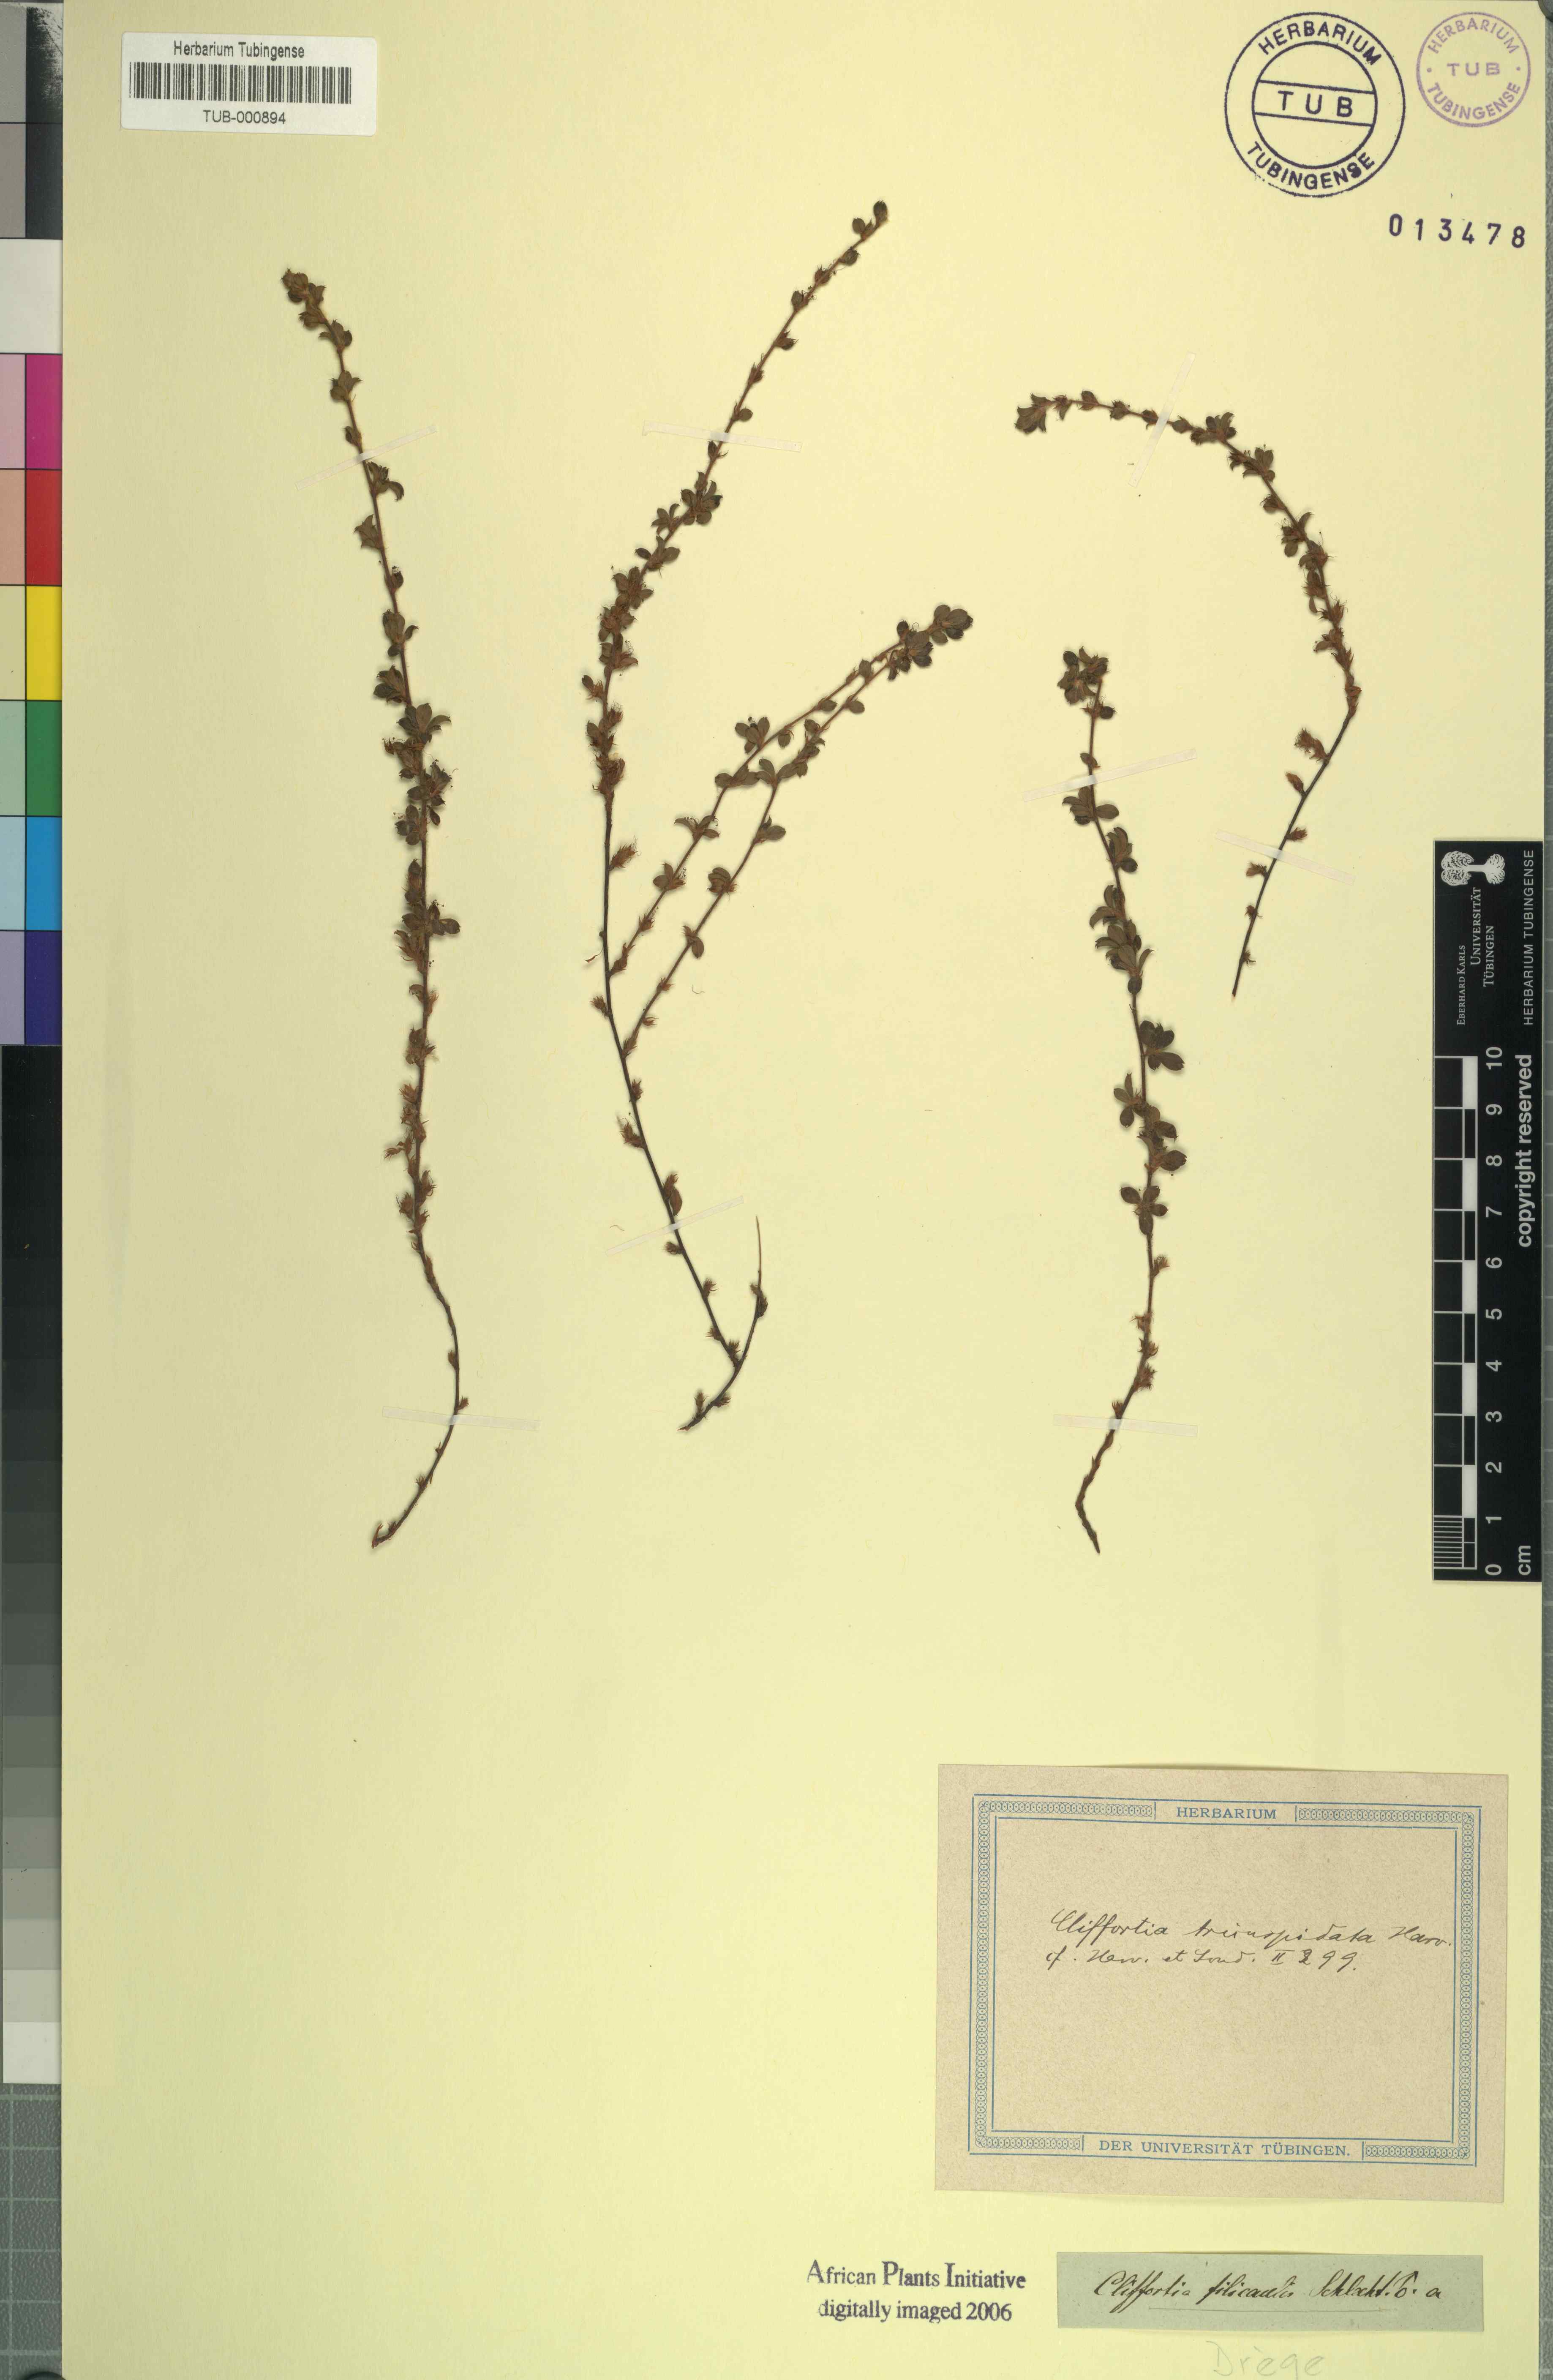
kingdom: Plantae
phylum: Tracheophyta
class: Magnoliopsida
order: Rosales
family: Rosaceae
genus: Cliffortia
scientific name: Cliffortia tricuspidata
